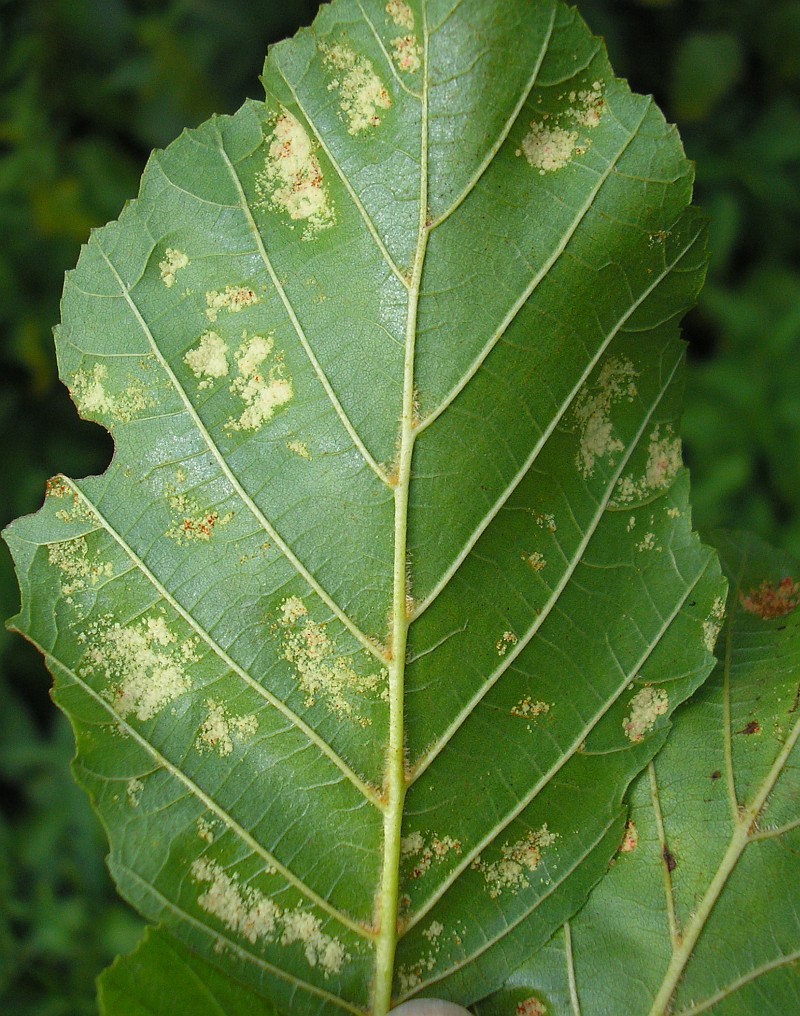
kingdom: Animalia
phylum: Arthropoda
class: Arachnida
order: Trombidiformes
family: Eriophyidae
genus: Acalitus
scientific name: Acalitus brevitarsus
